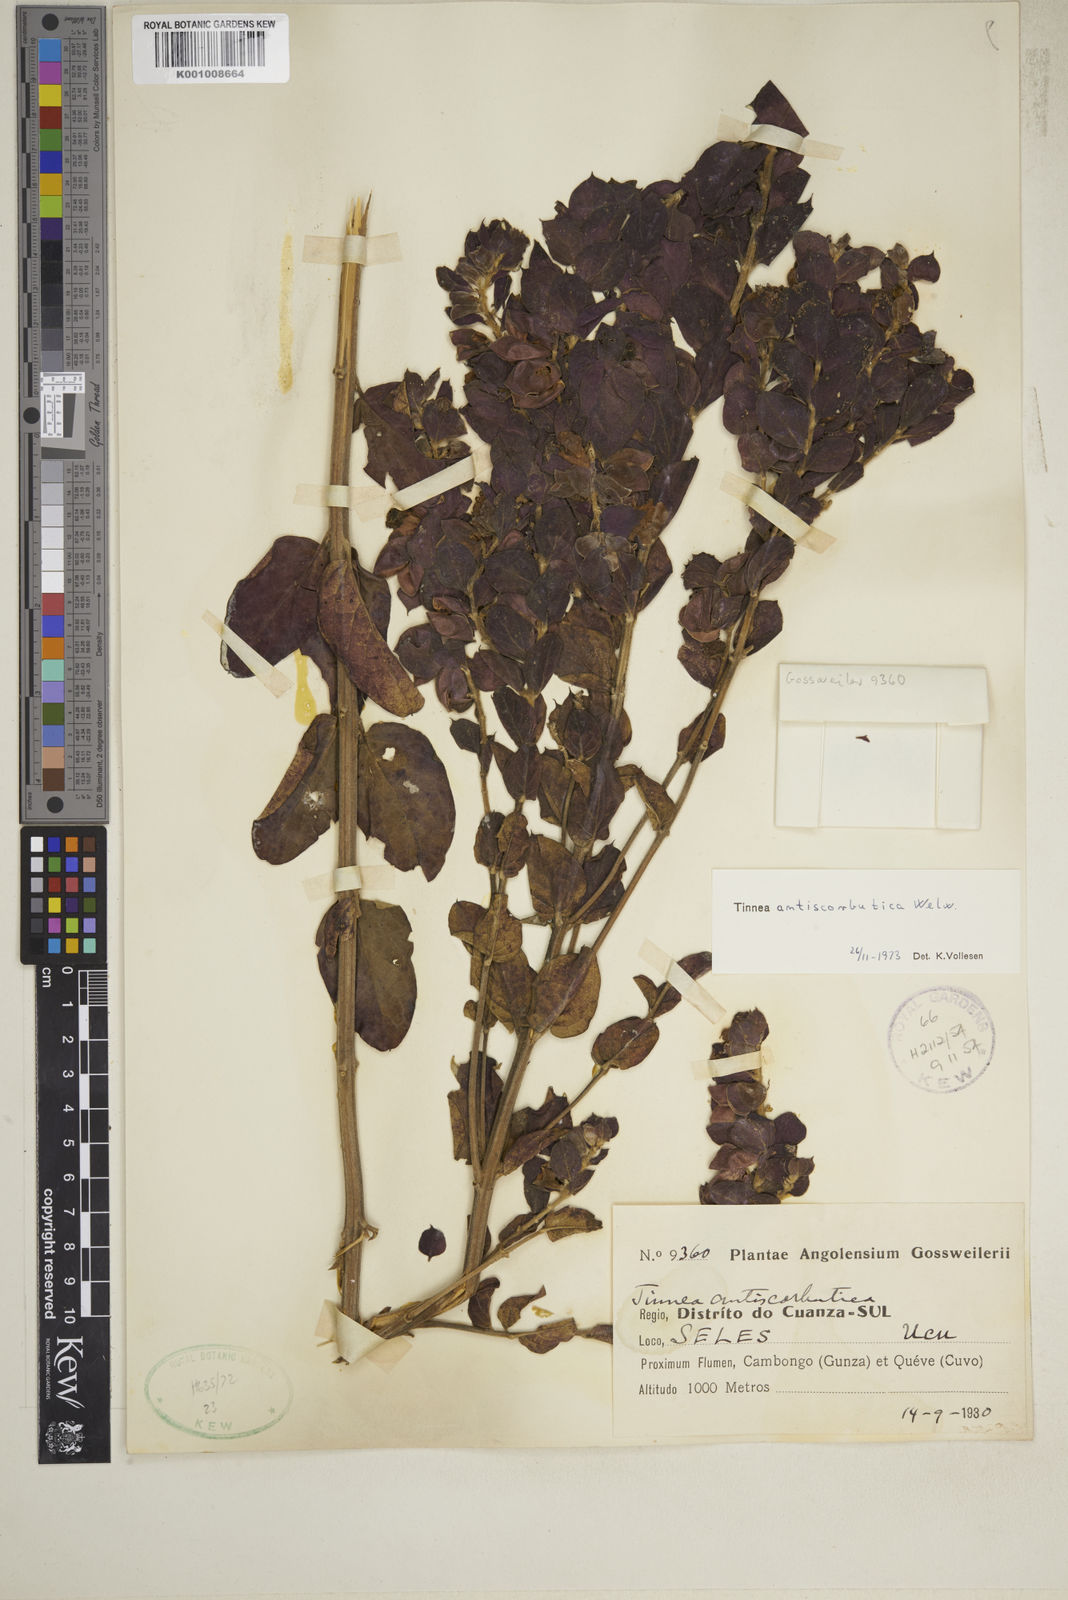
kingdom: Plantae
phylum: Tracheophyta
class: Magnoliopsida
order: Lamiales
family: Lamiaceae
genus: Tinnea
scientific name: Tinnea antiscorbutica
